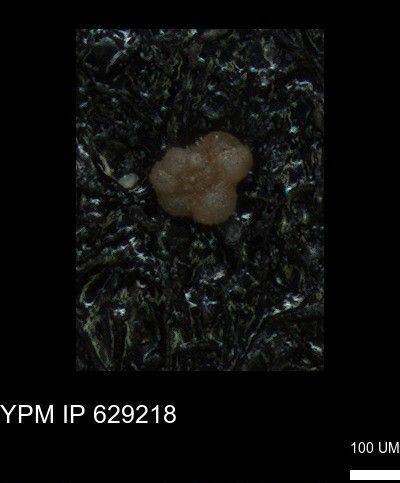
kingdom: Chromista
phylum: Foraminifera
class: Globothalamea
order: Rotaliida
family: Rugoglobigerinidae
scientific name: Rugoglobigerinidae
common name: forams
